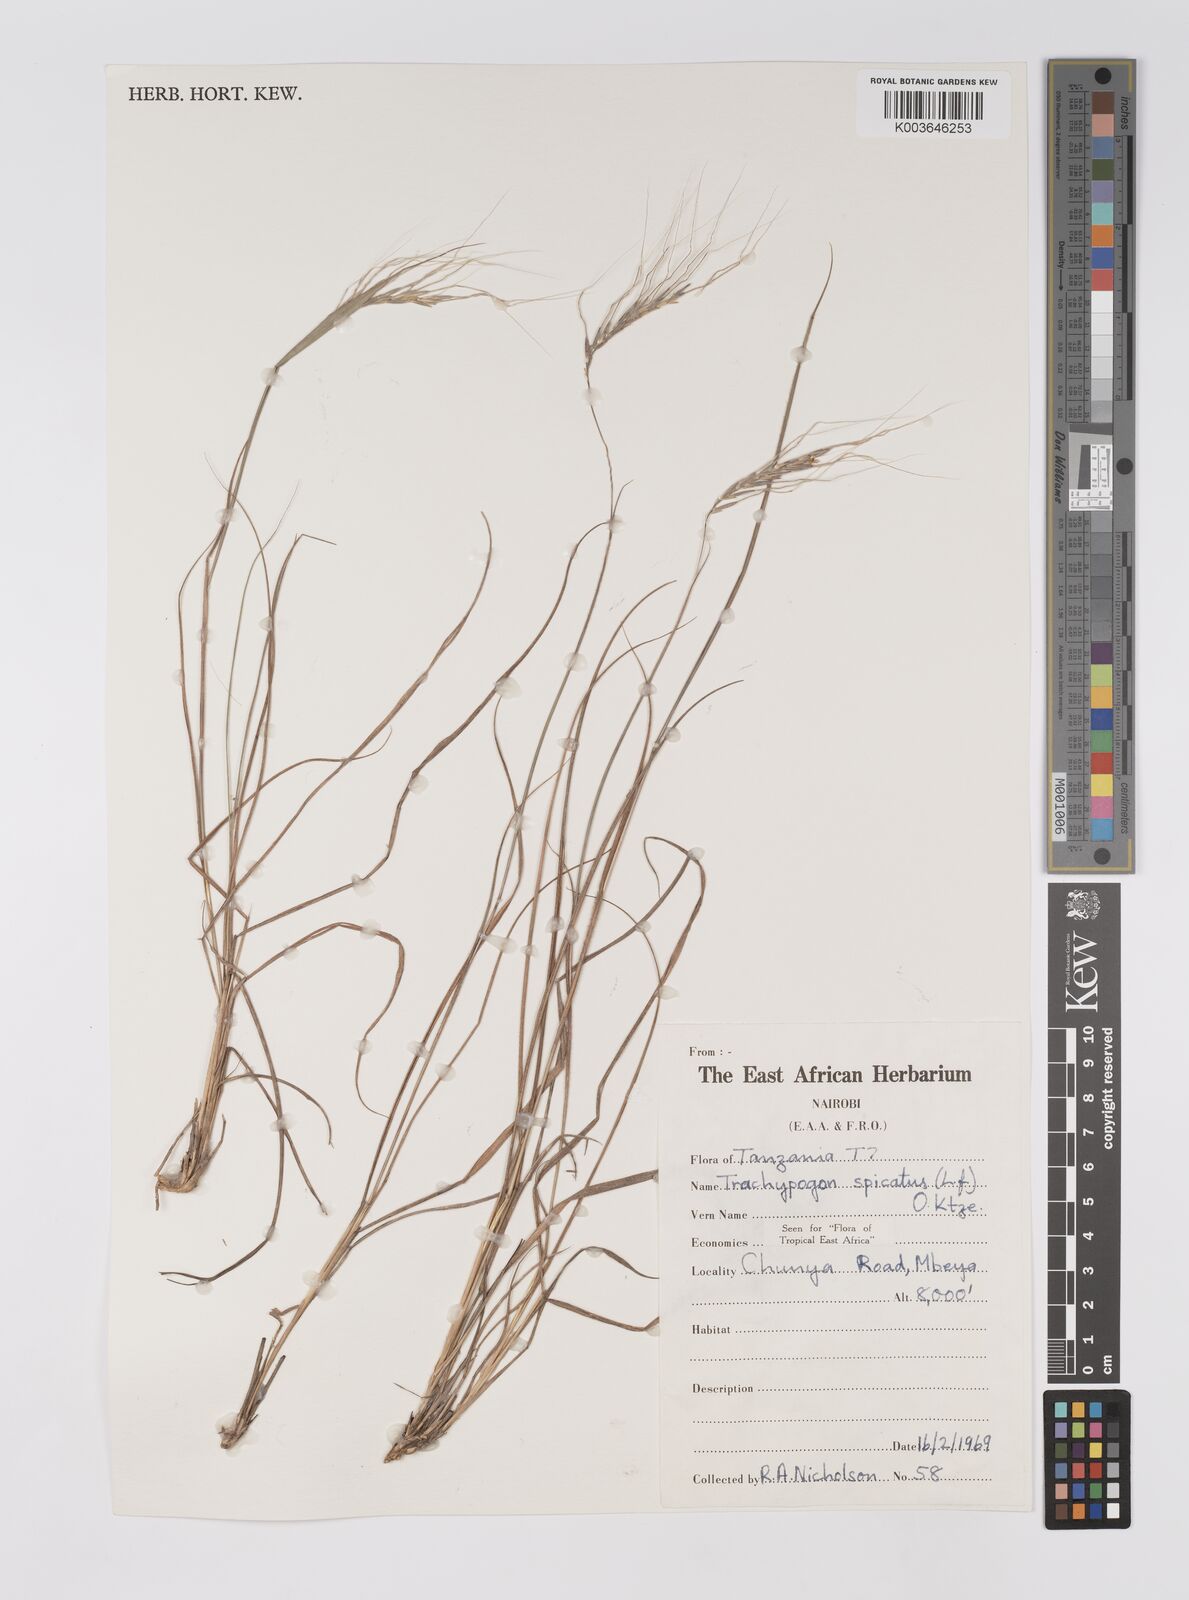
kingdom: Plantae
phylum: Tracheophyta
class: Liliopsida
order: Poales
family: Poaceae
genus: Trachypogon
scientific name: Trachypogon spicatus
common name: Crinkle-awn
